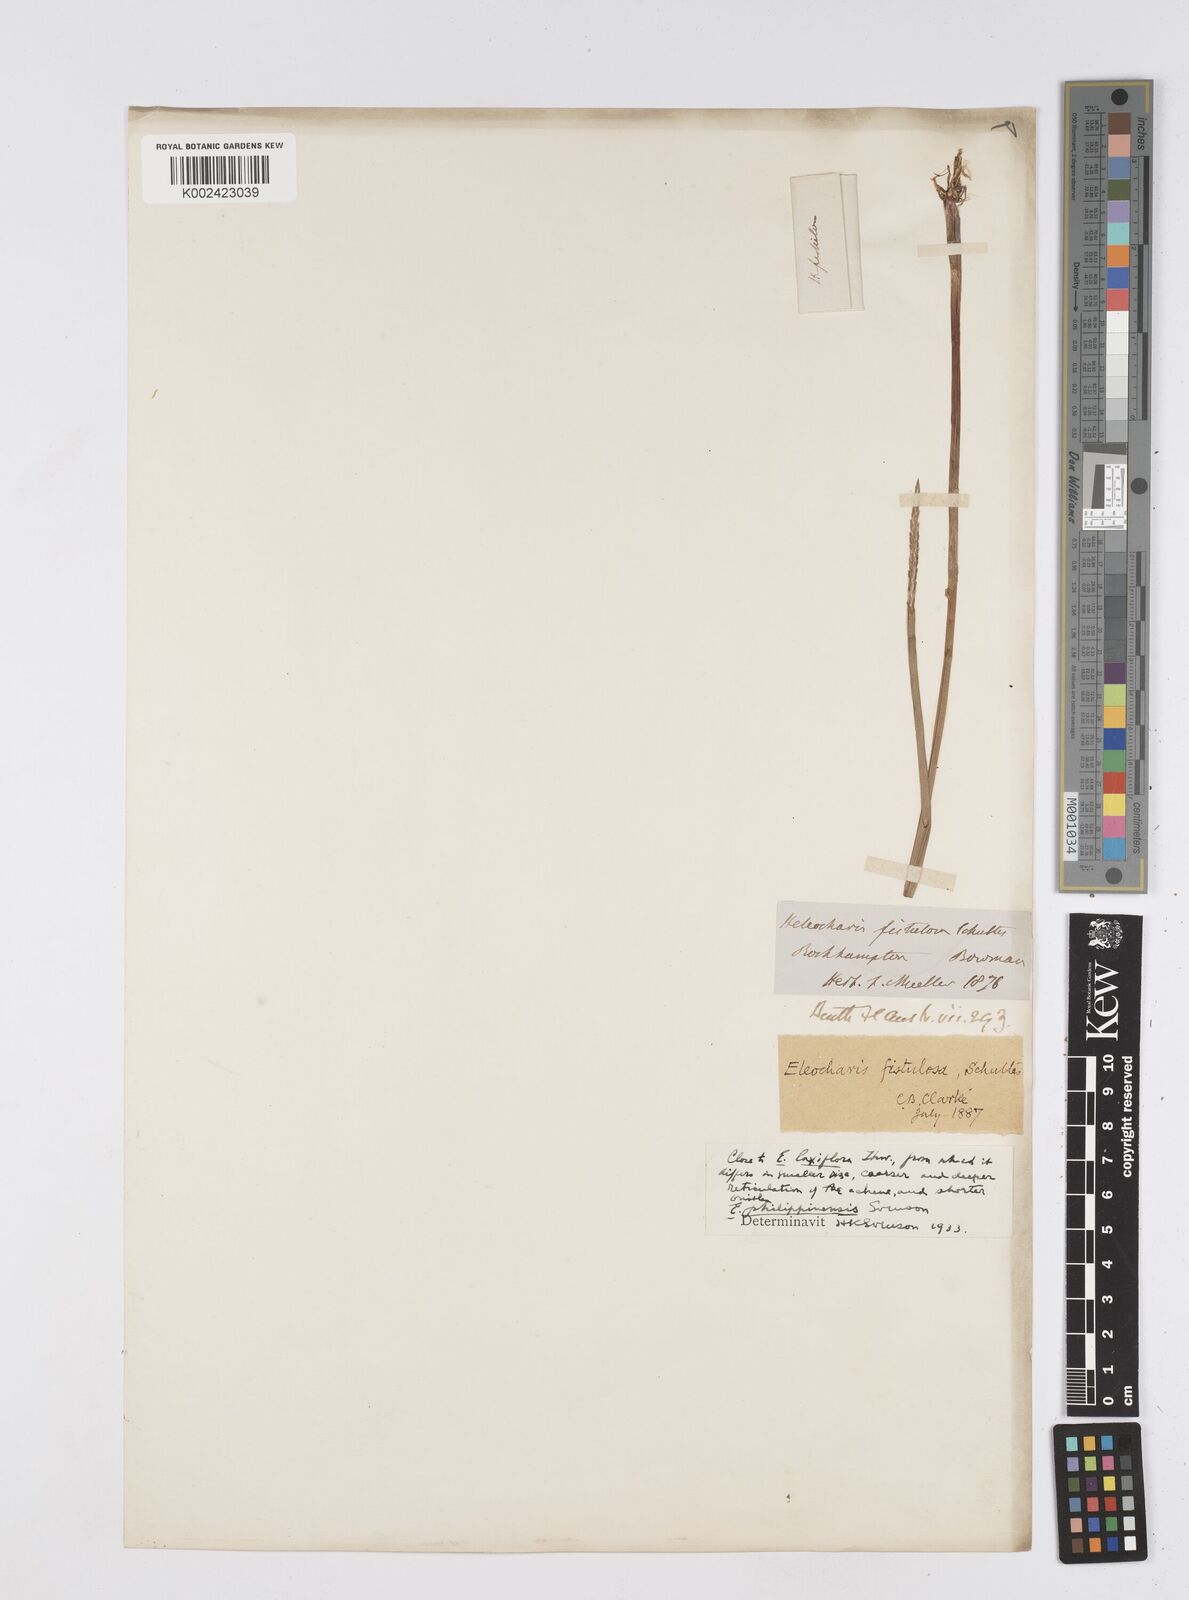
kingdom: Plantae
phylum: Tracheophyta
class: Liliopsida
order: Poales
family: Cyperaceae
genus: Eleocharis
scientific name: Eleocharis nuda
